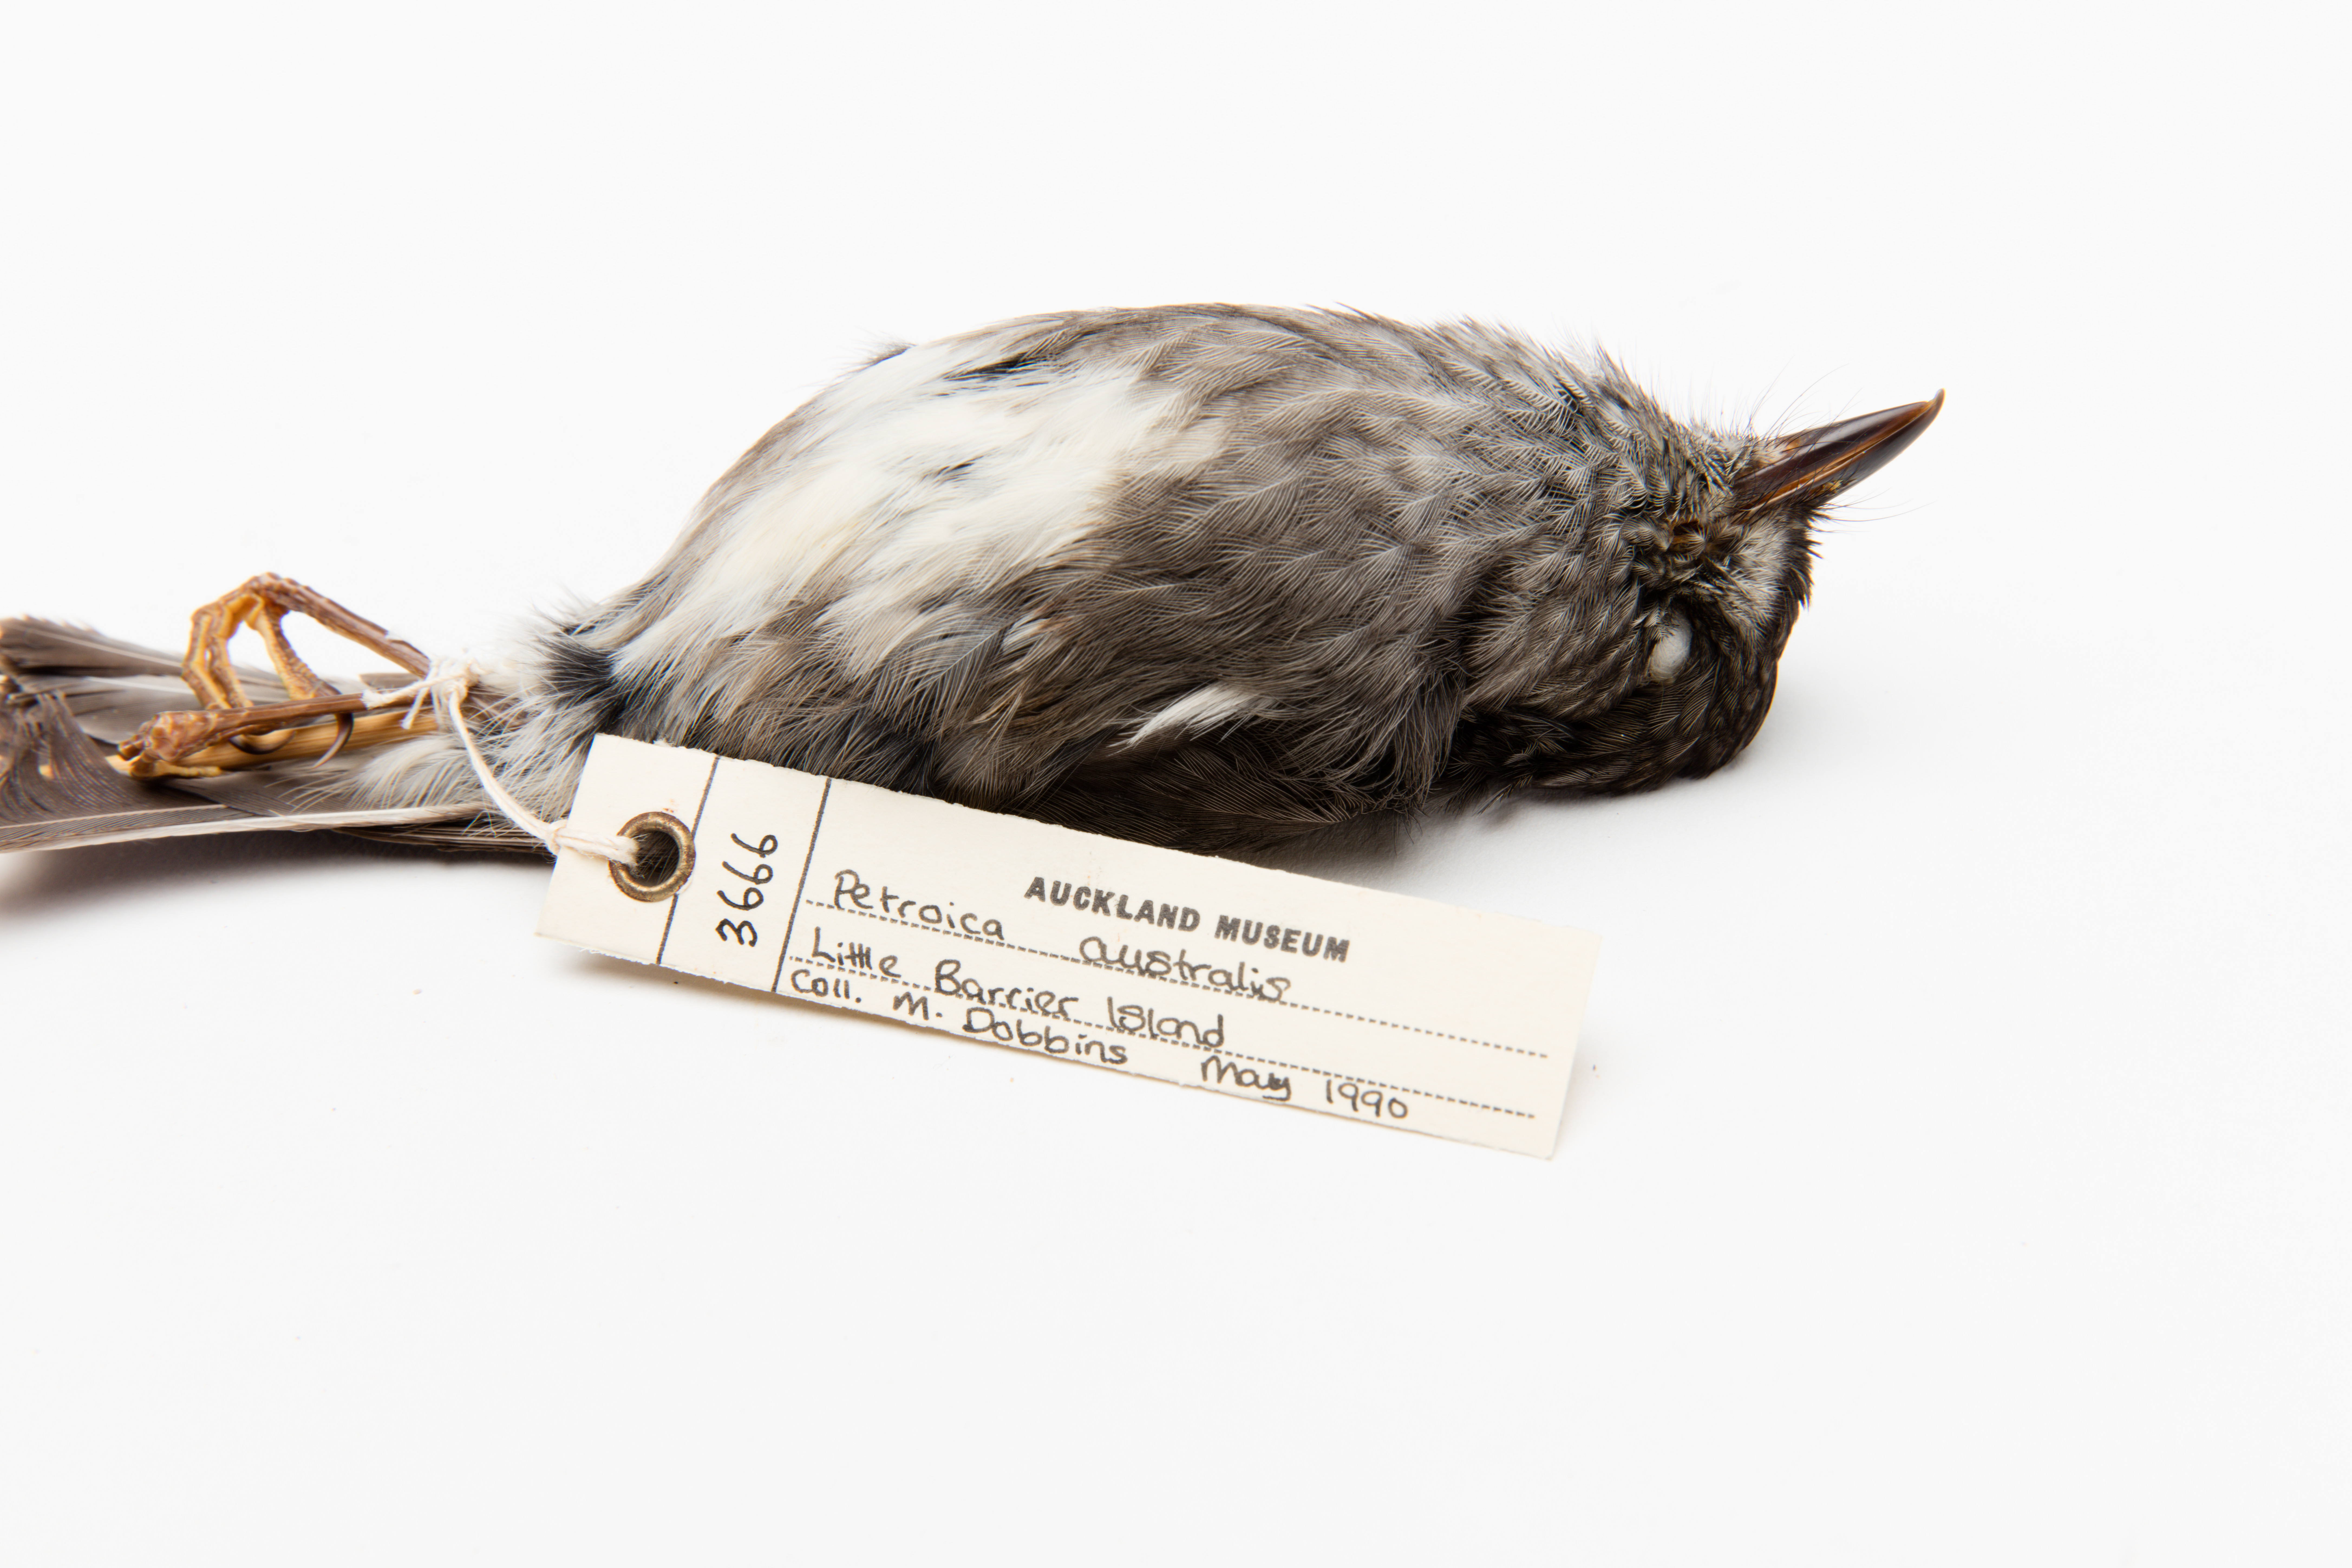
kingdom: Animalia
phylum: Chordata
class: Aves
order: Passeriformes
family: Petroicidae
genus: Petroica
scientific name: Petroica australis
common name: New zealand robin
